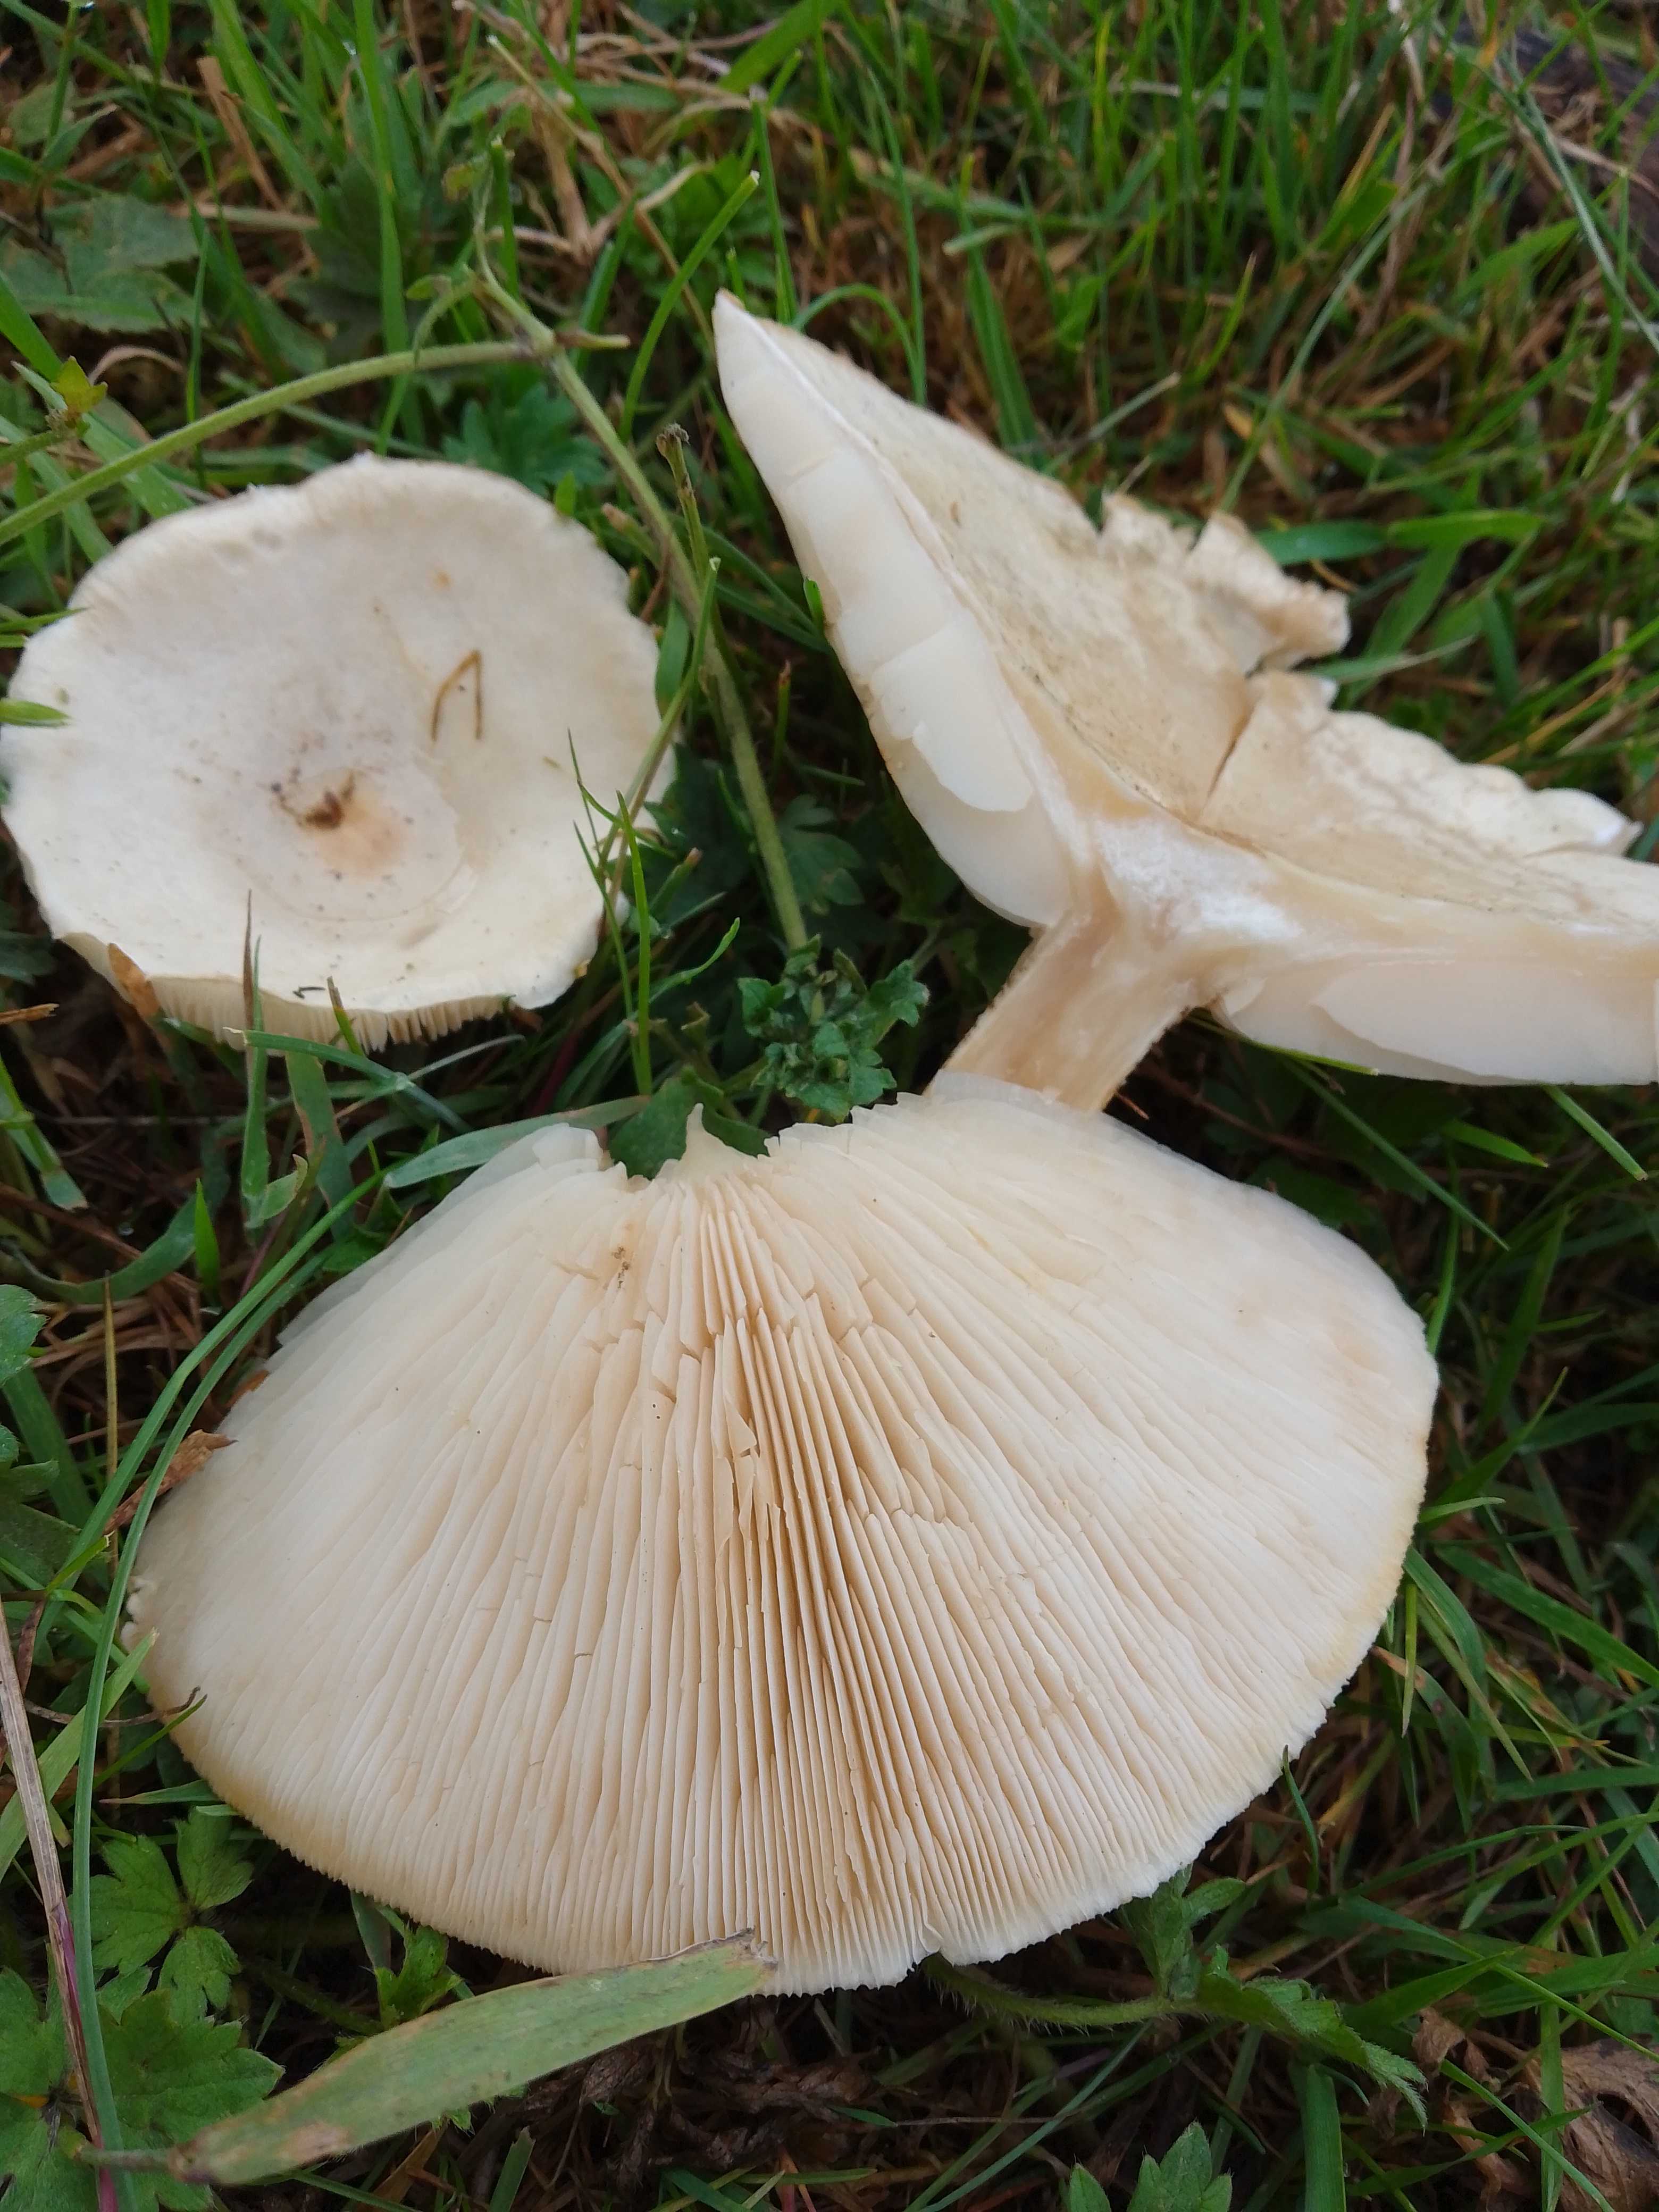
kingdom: Fungi
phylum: Basidiomycota
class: Agaricomycetes
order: Agaricales
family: Tricholomataceae
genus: Melanoleuca
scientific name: Melanoleuca verrucipes
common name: rufodet munkehat
